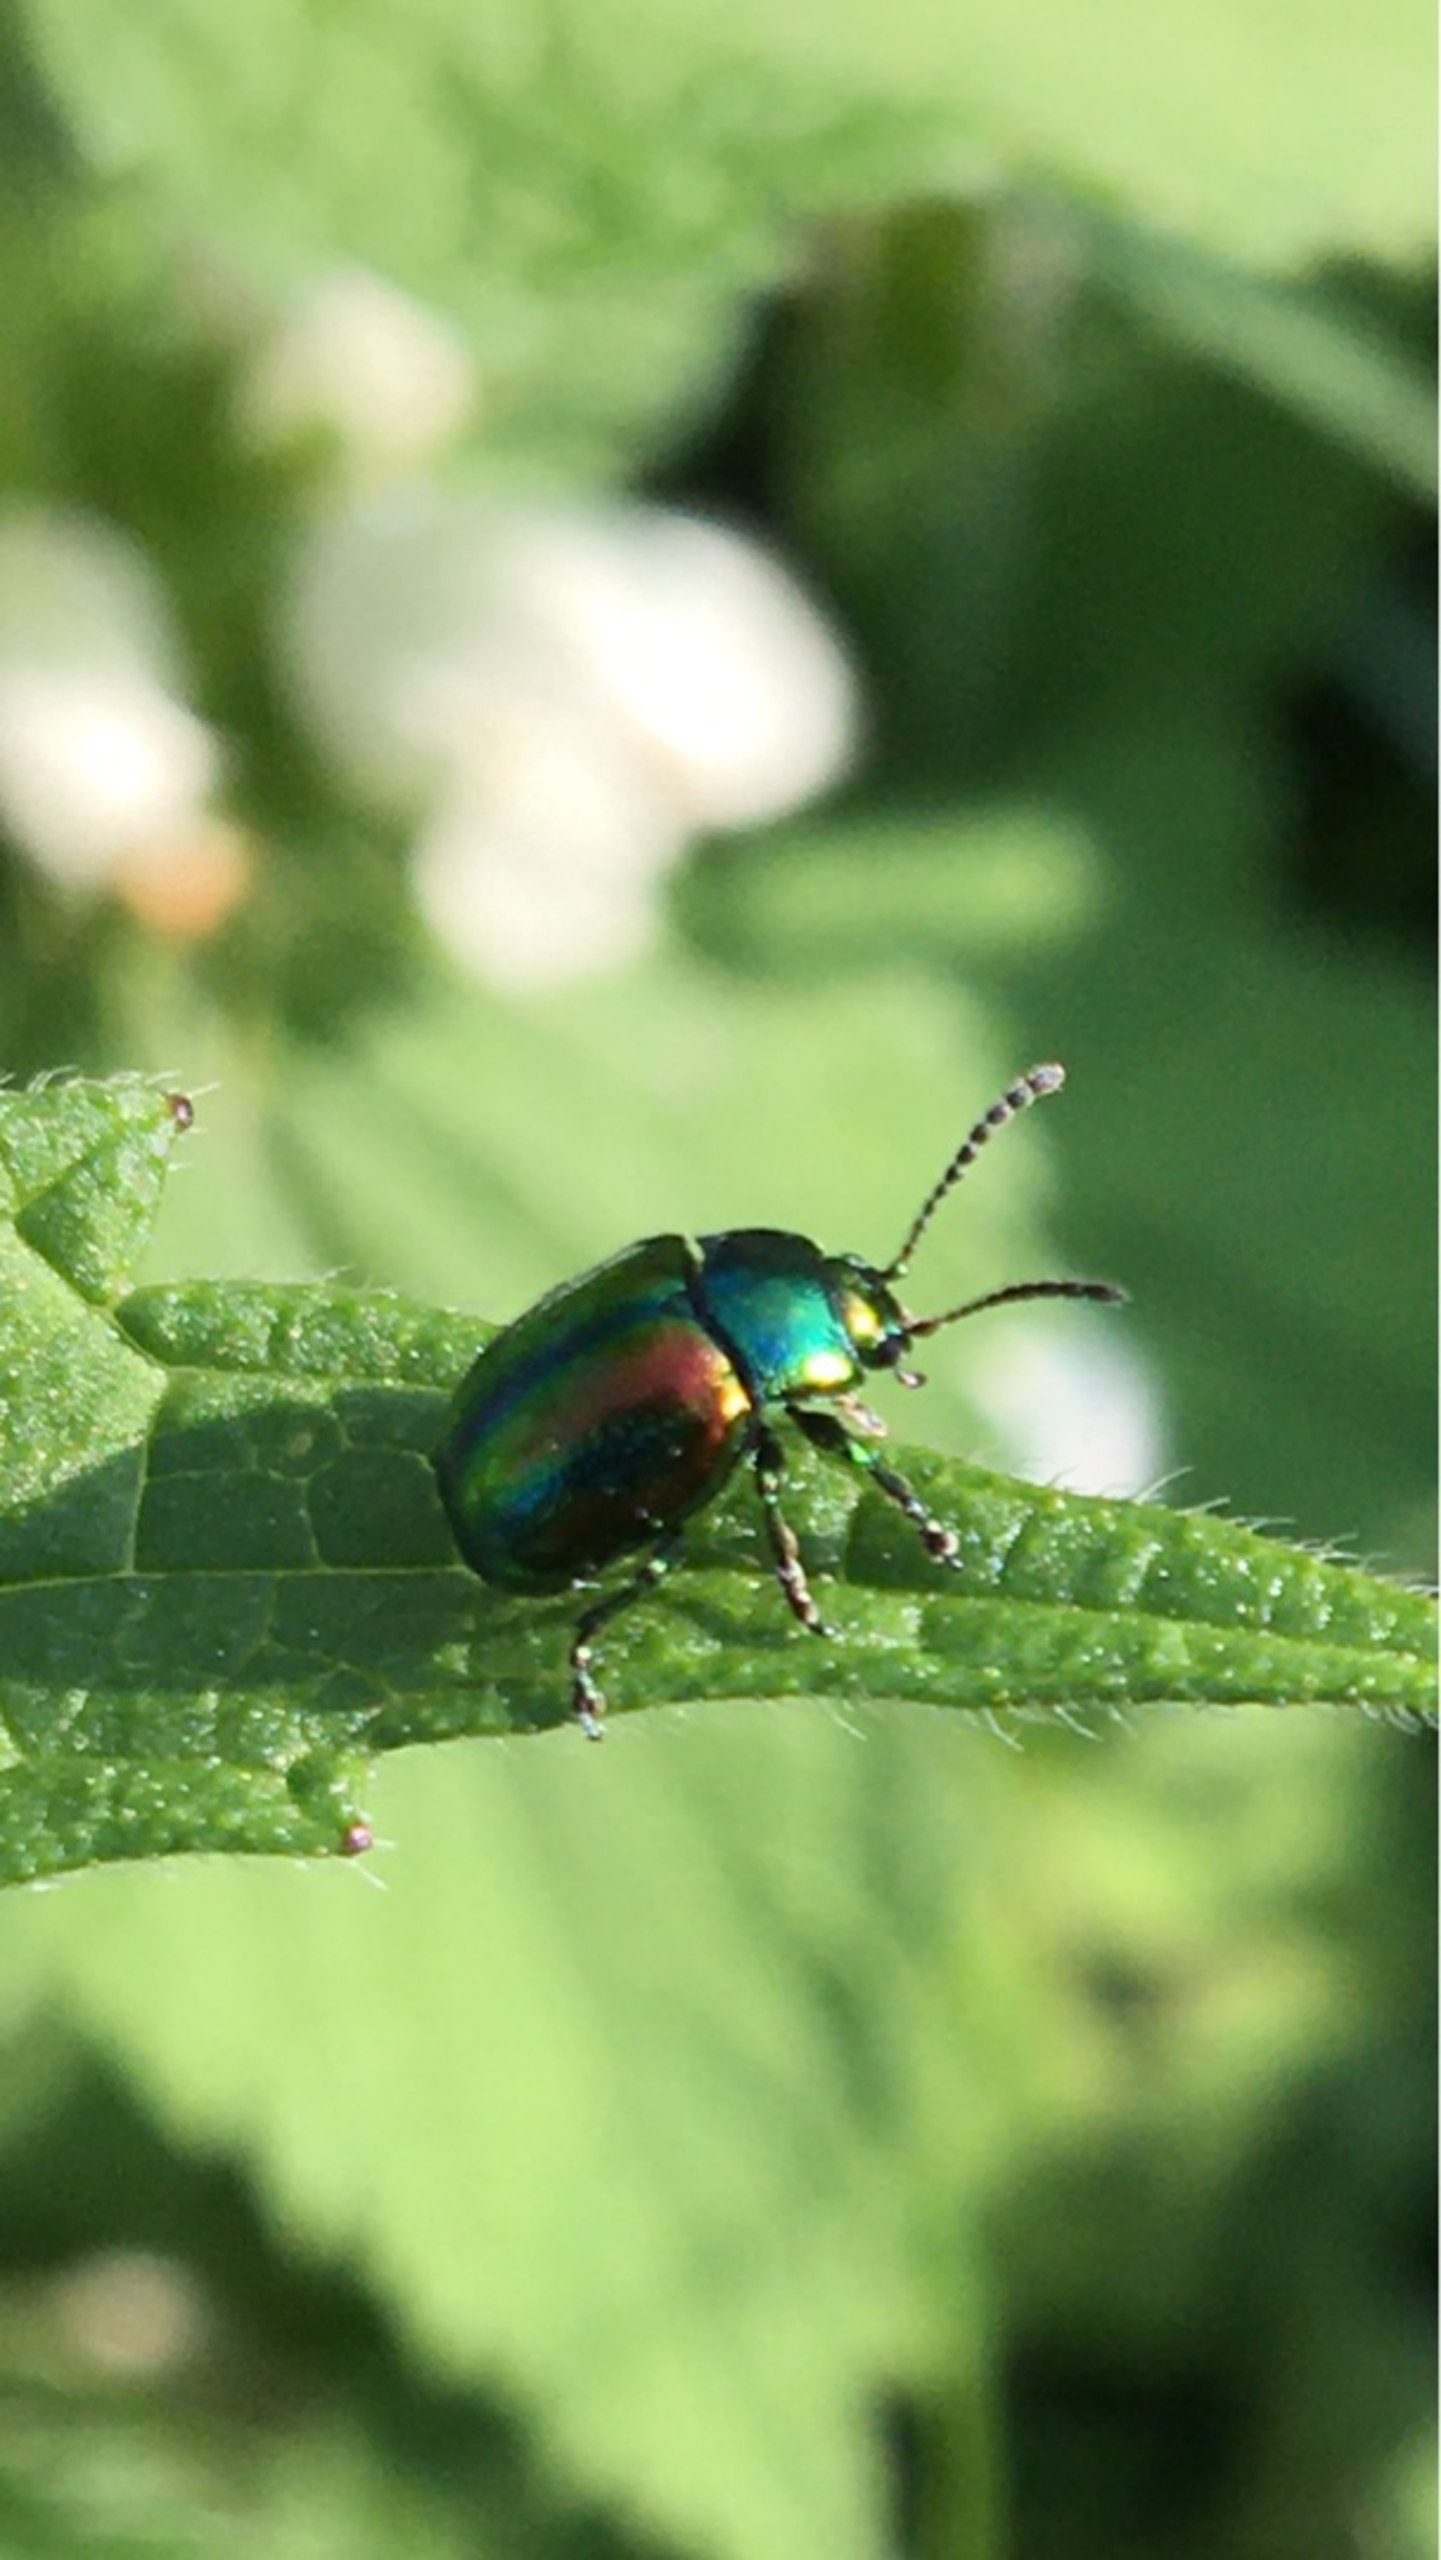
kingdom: Animalia
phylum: Arthropoda
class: Insecta
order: Coleoptera
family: Chrysomelidae
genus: Chrysolina
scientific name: Chrysolina fastuosa
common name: Tvetandbladbille
